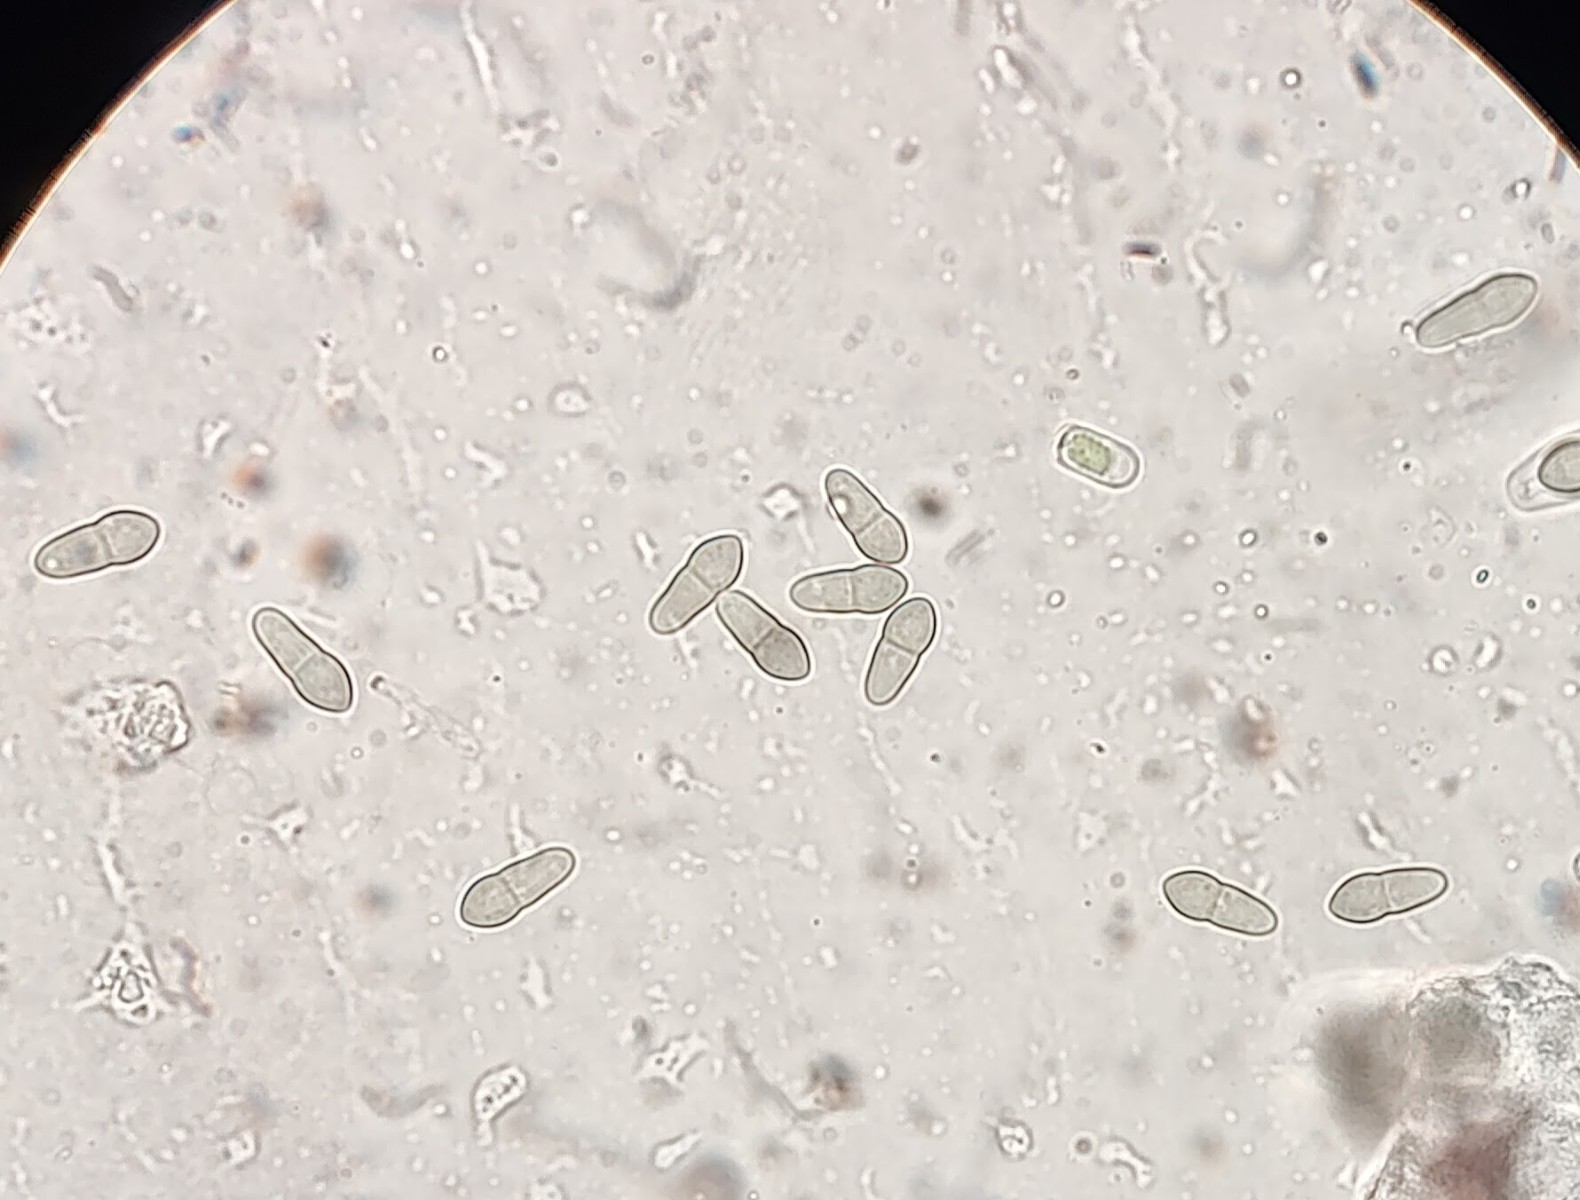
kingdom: Fungi
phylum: Ascomycota
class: Dothideomycetes
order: Venturiales
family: Venturiaceae
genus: Venturia
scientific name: Venturia minuta
